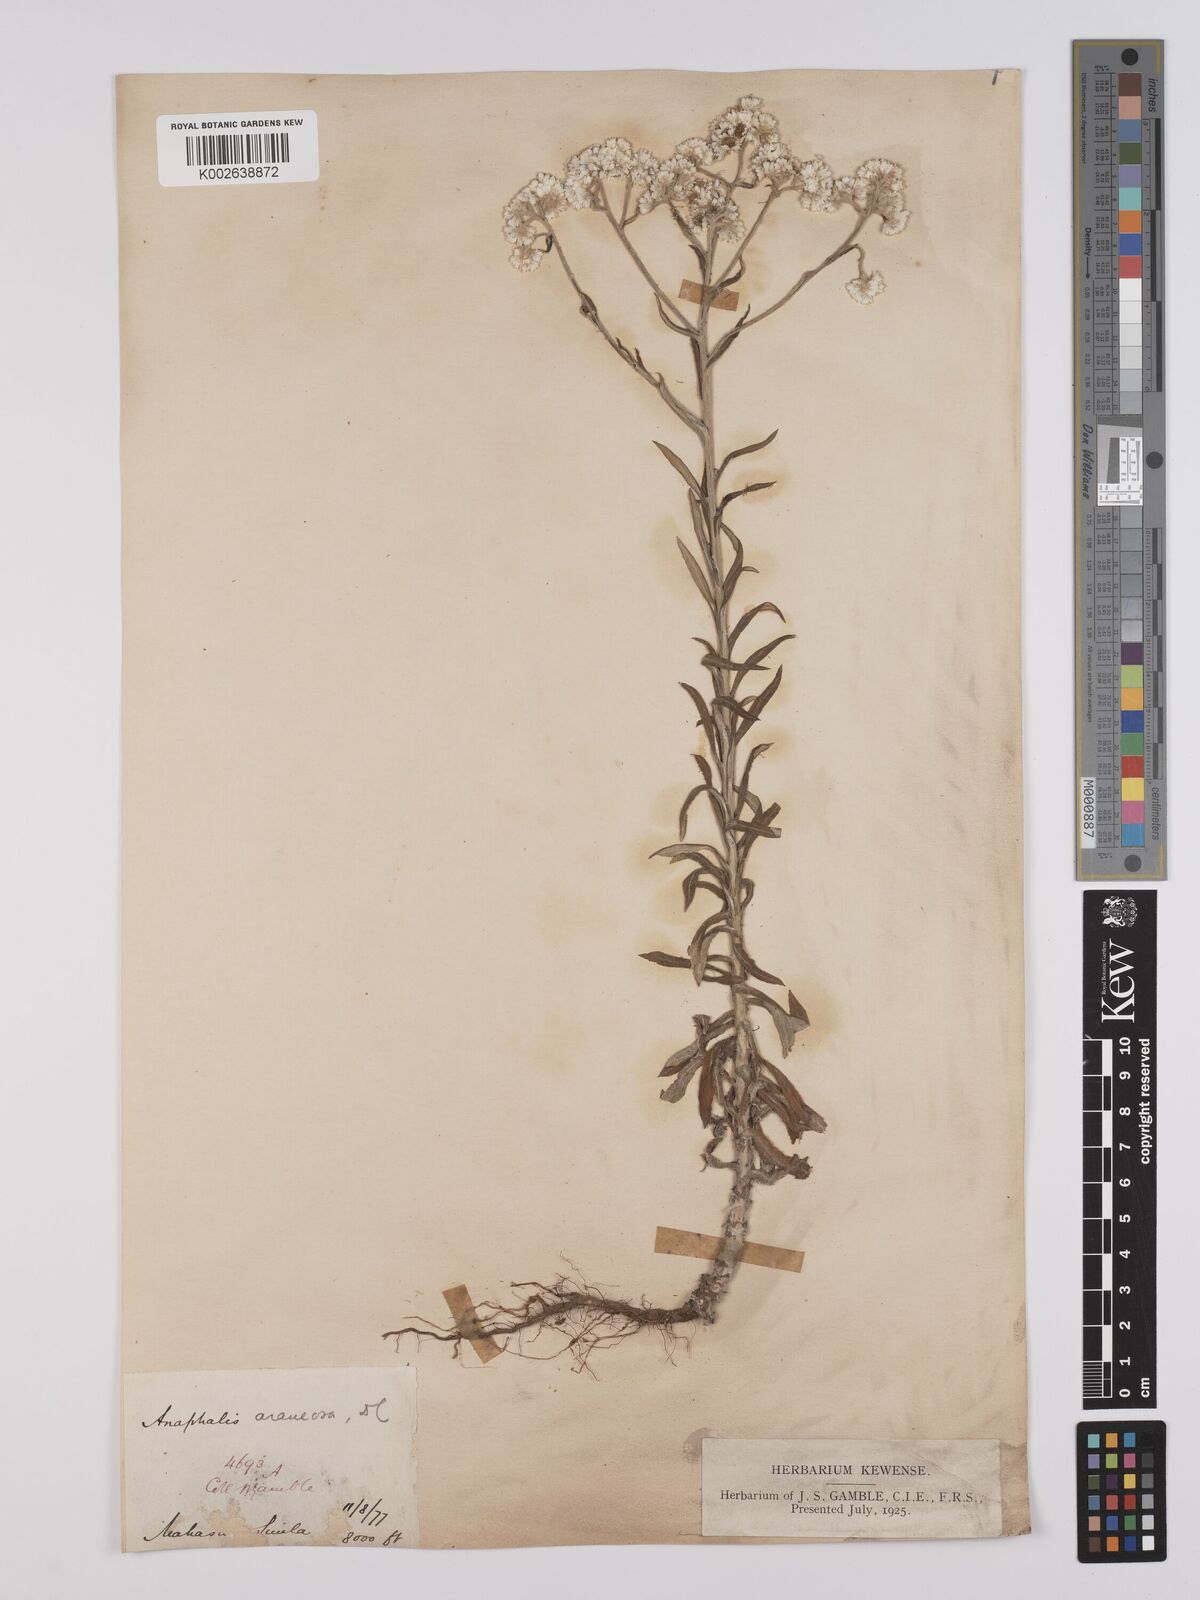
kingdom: Plantae
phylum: Tracheophyta
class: Magnoliopsida
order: Asterales
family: Asteraceae
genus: Anaphalis
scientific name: Anaphalis busua
